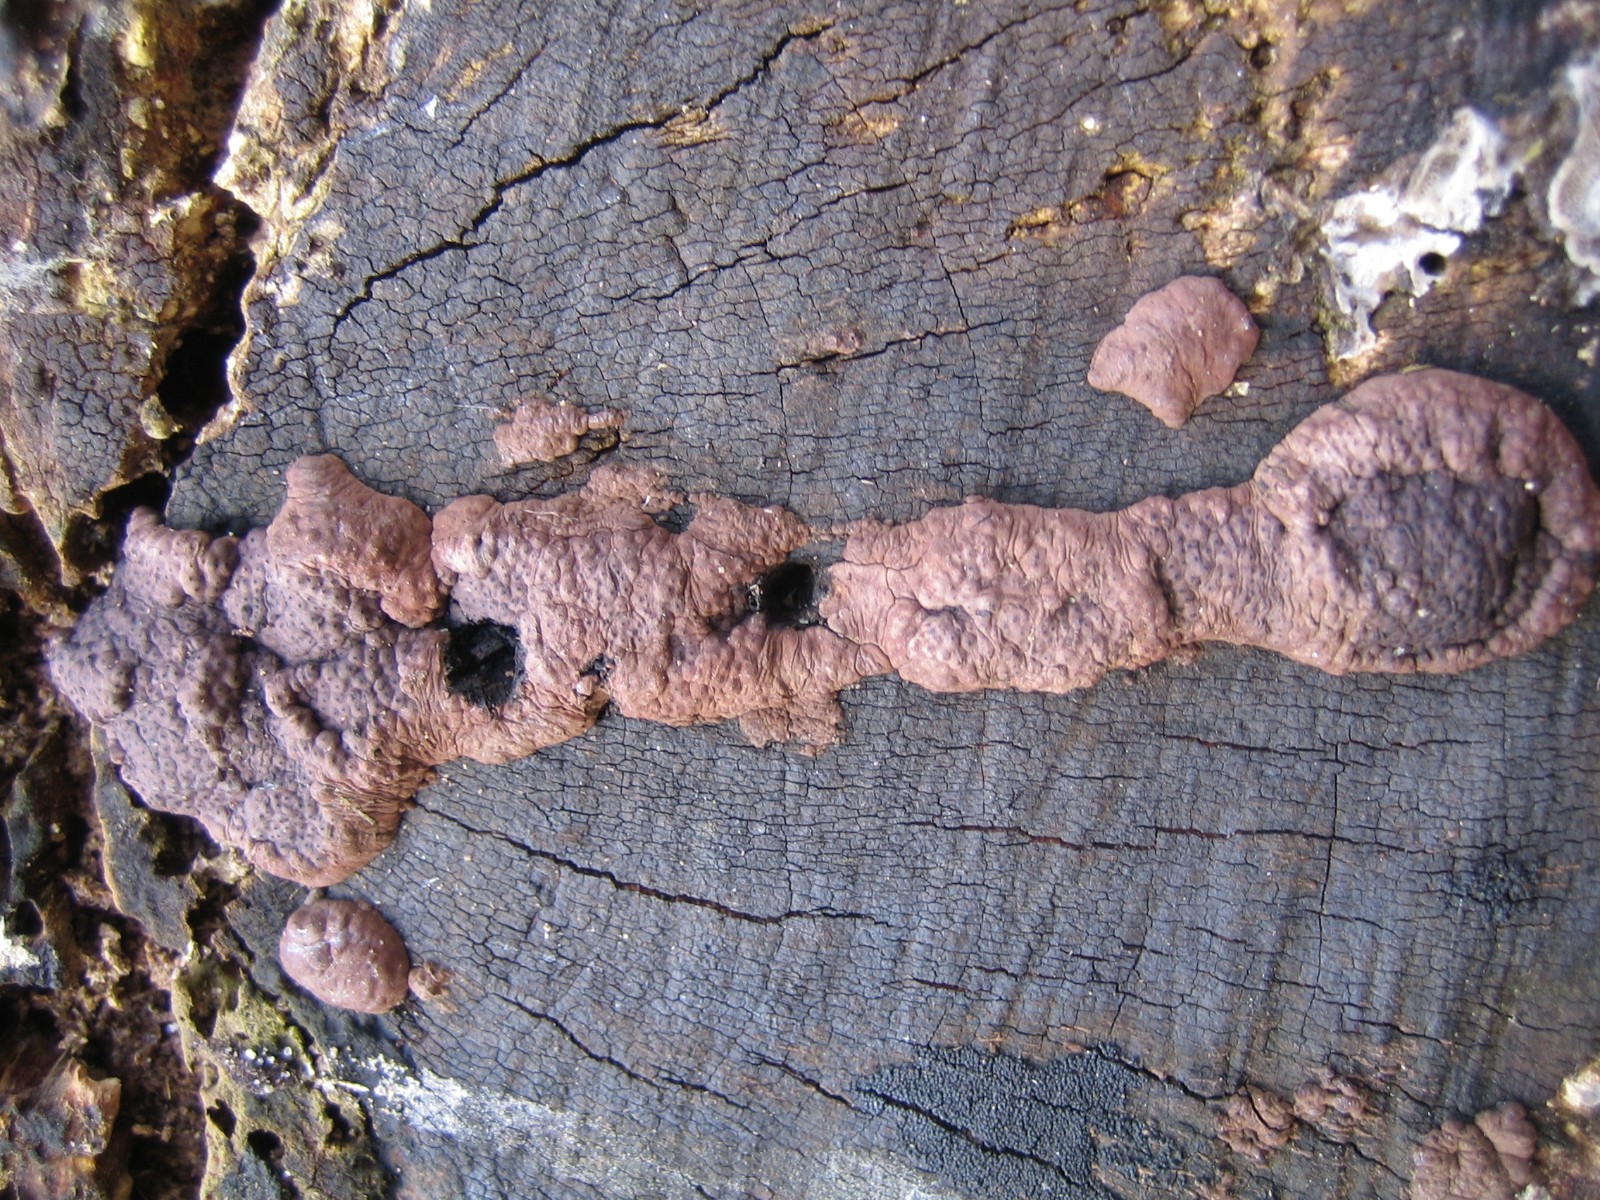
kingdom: Fungi
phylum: Ascomycota
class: Sordariomycetes
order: Xylariales
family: Hypoxylaceae
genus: Jackrogersella
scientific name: Jackrogersella multiformis
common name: foranderlig kulbær
